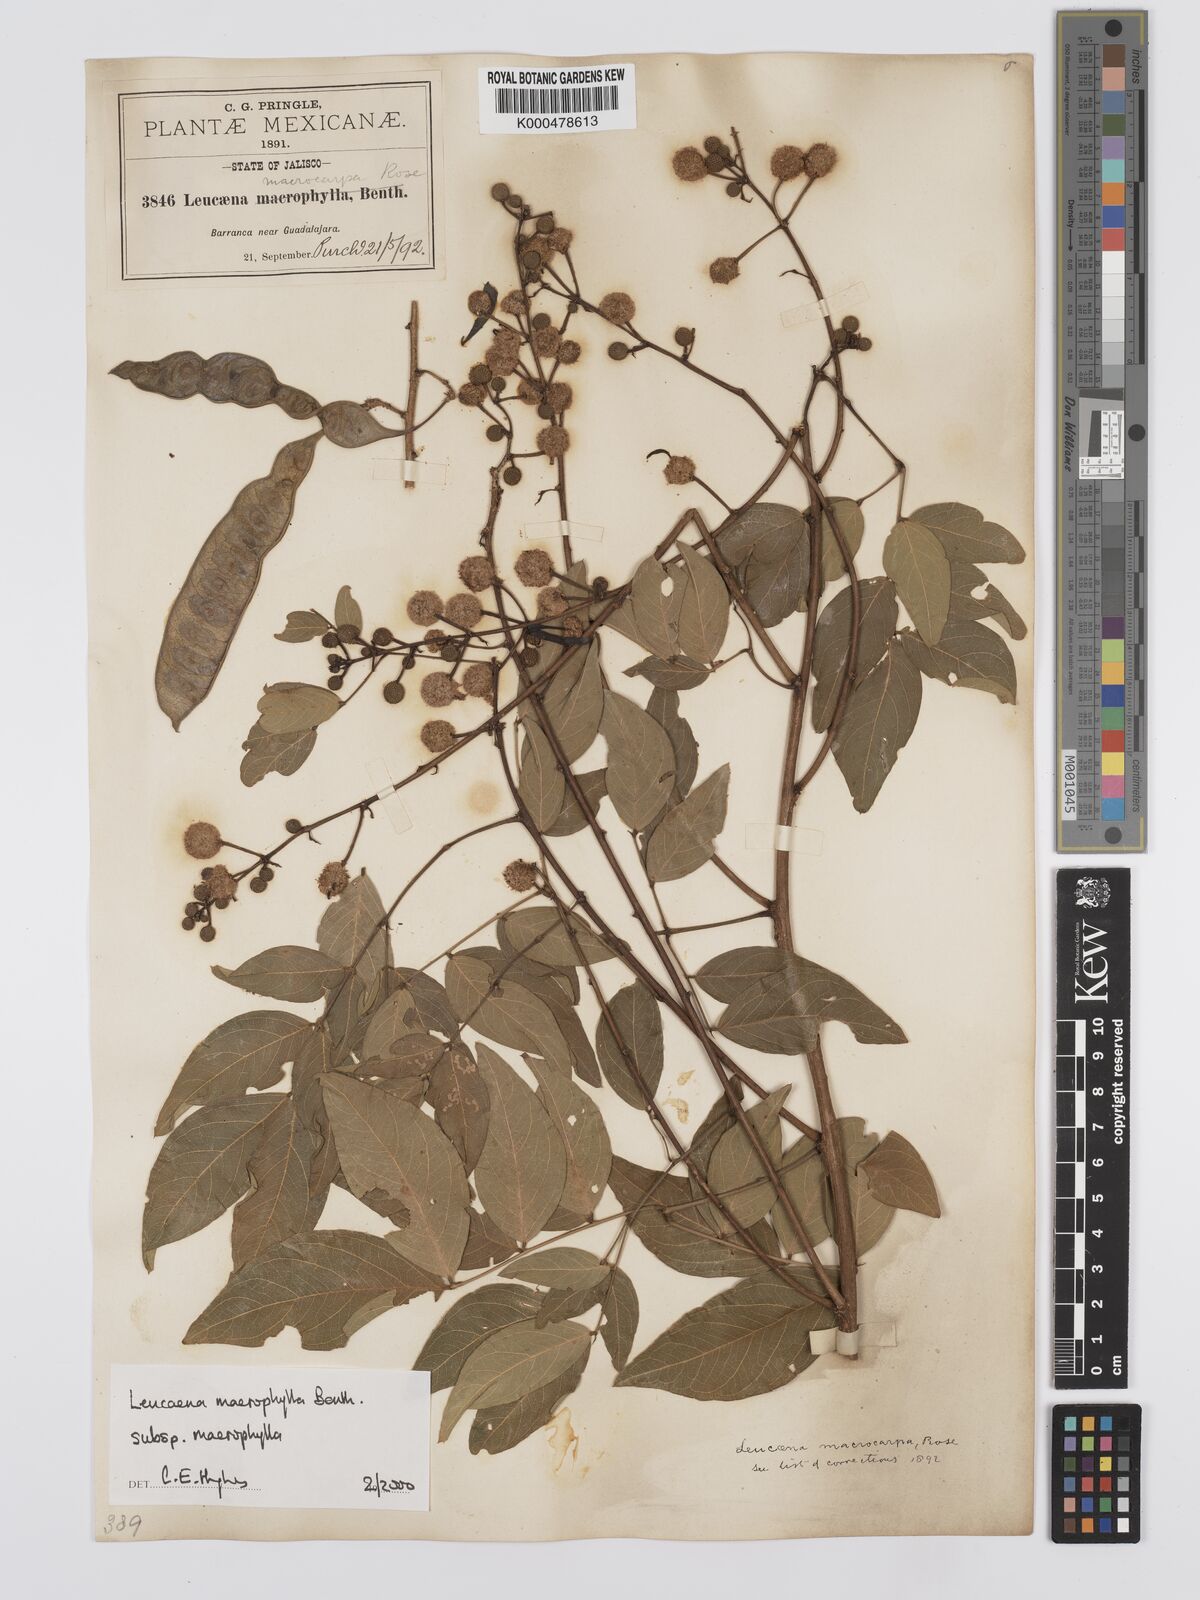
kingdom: Plantae
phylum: Tracheophyta
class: Magnoliopsida
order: Fabales
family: Fabaceae
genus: Leucaena
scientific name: Leucaena macrophylla
